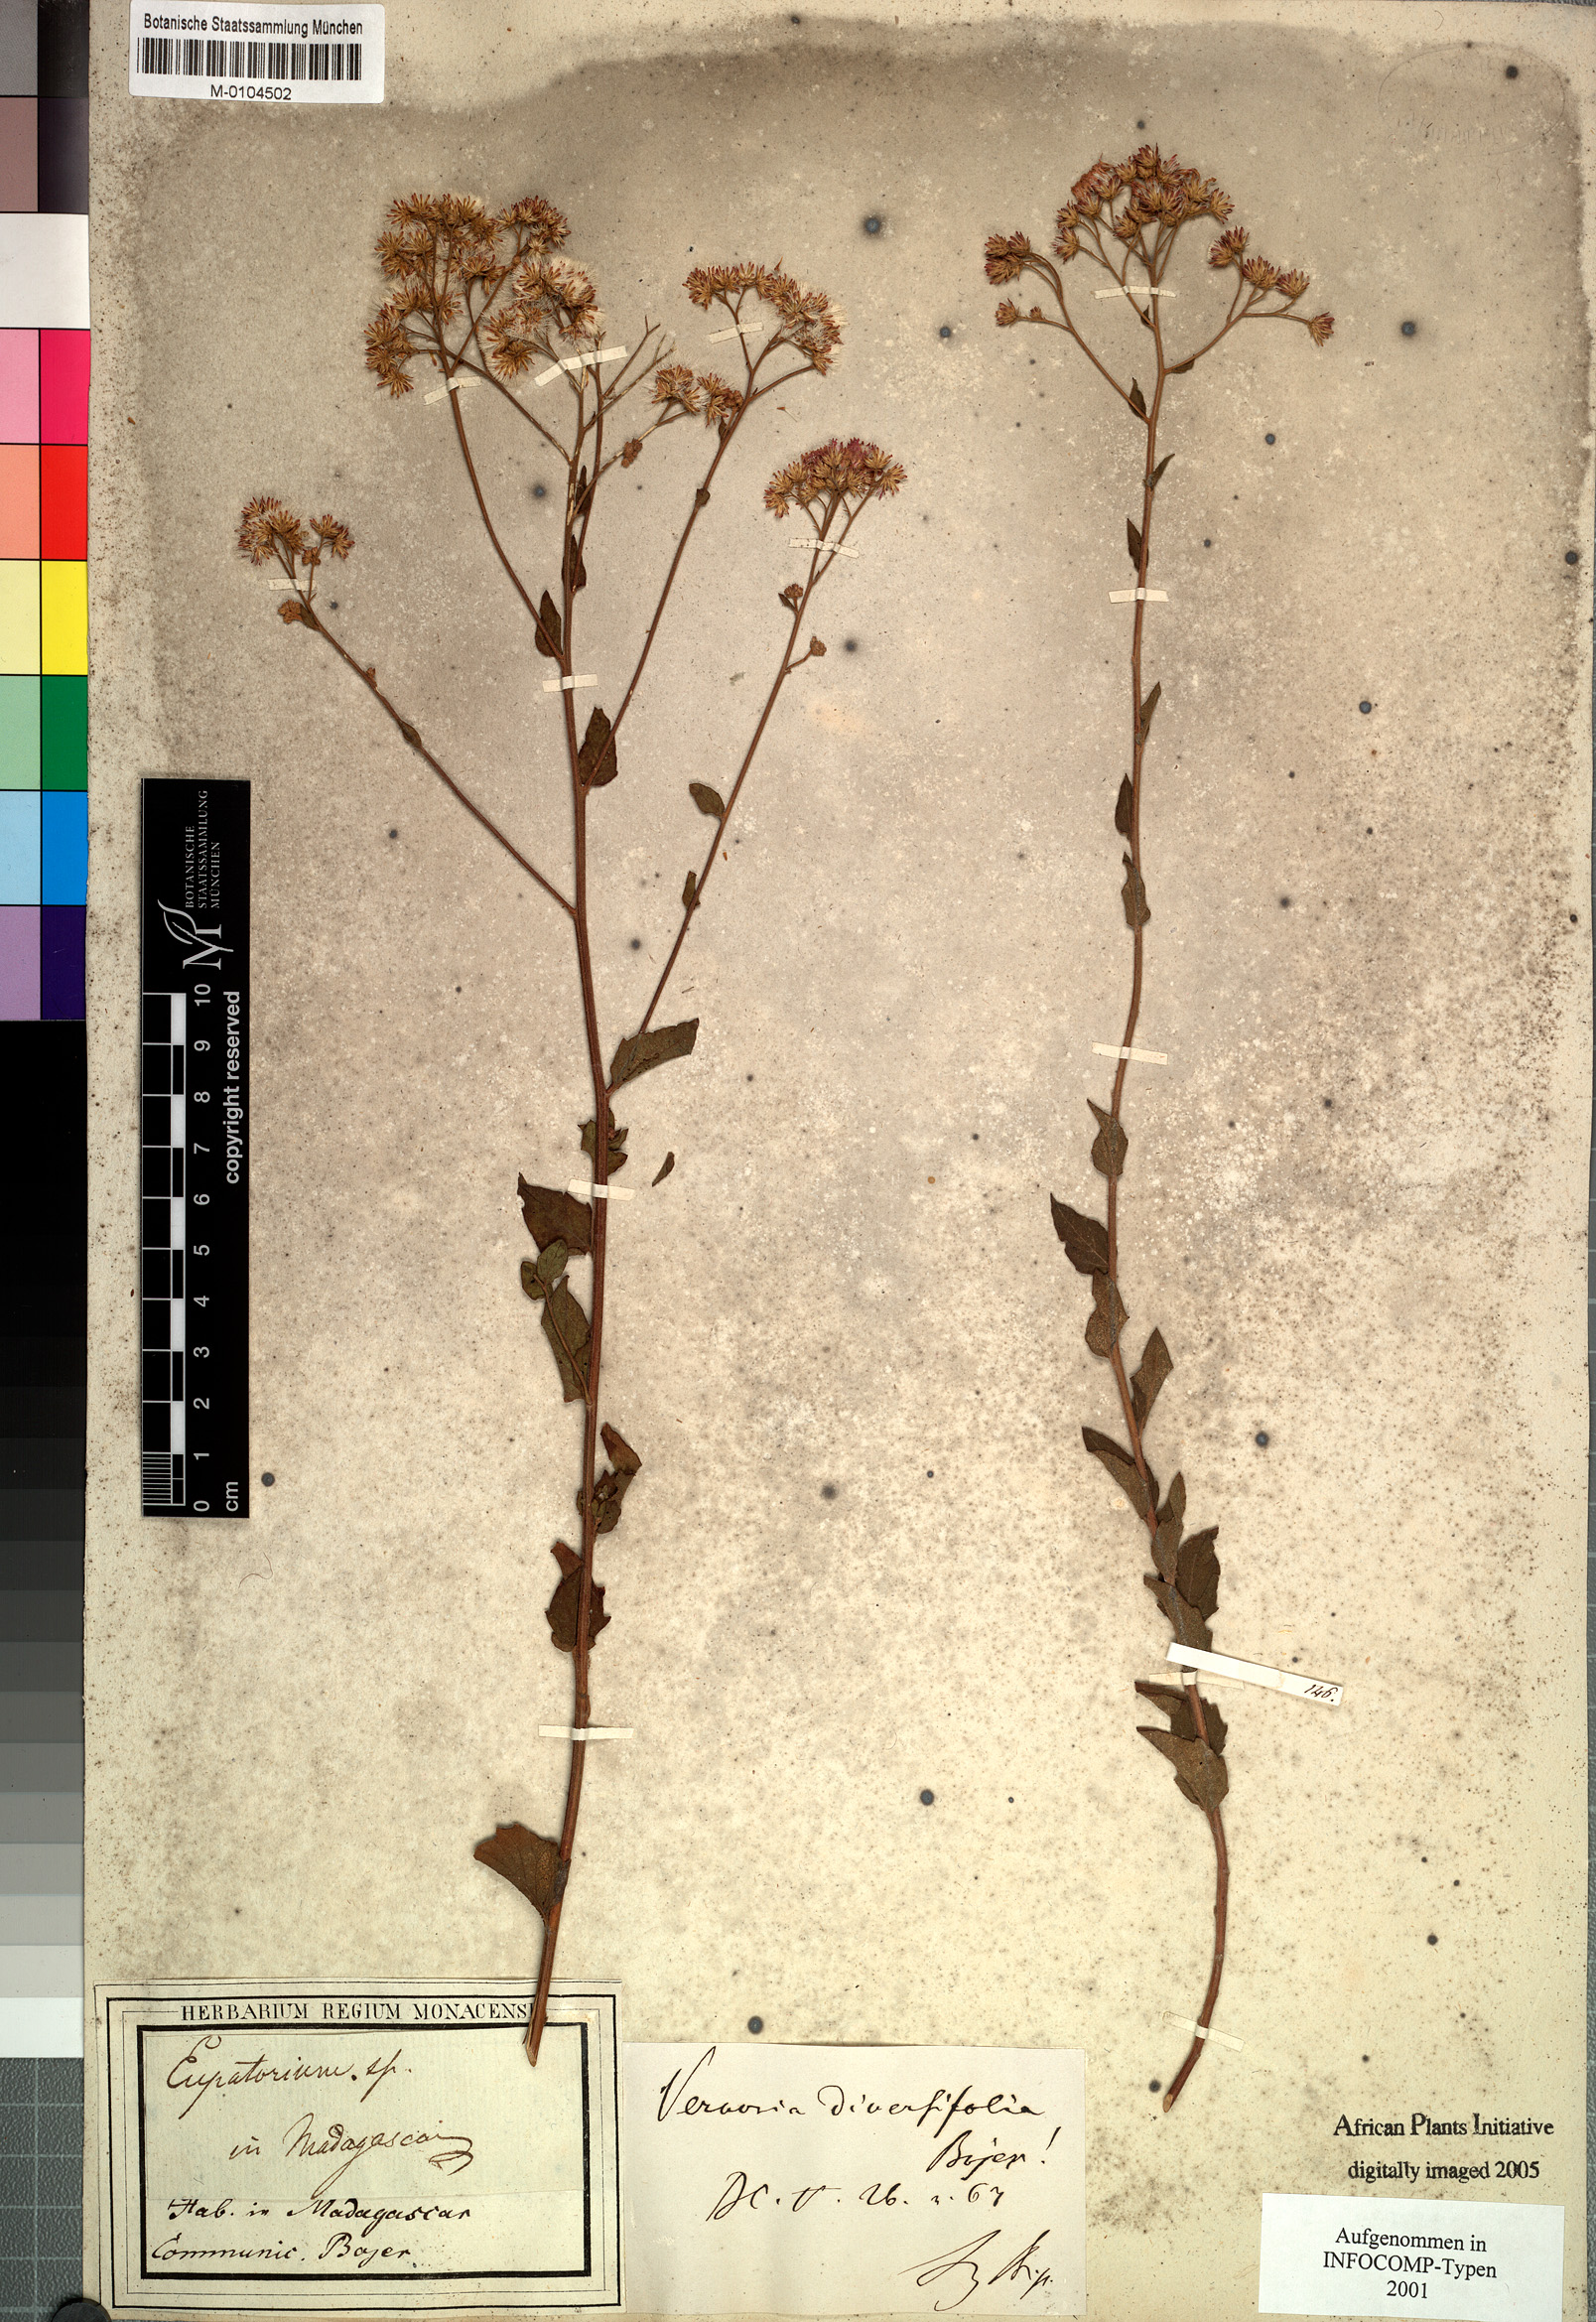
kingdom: Plantae
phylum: Tracheophyta
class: Magnoliopsida
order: Asterales
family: Asteraceae
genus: Vernonia
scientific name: Vernonia diversifolia
